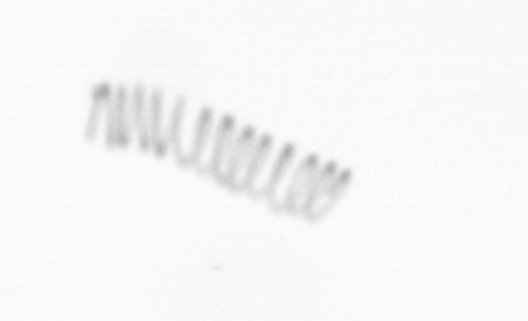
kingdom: Chromista
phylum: Ochrophyta
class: Bacillariophyceae
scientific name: Bacillariophyceae
